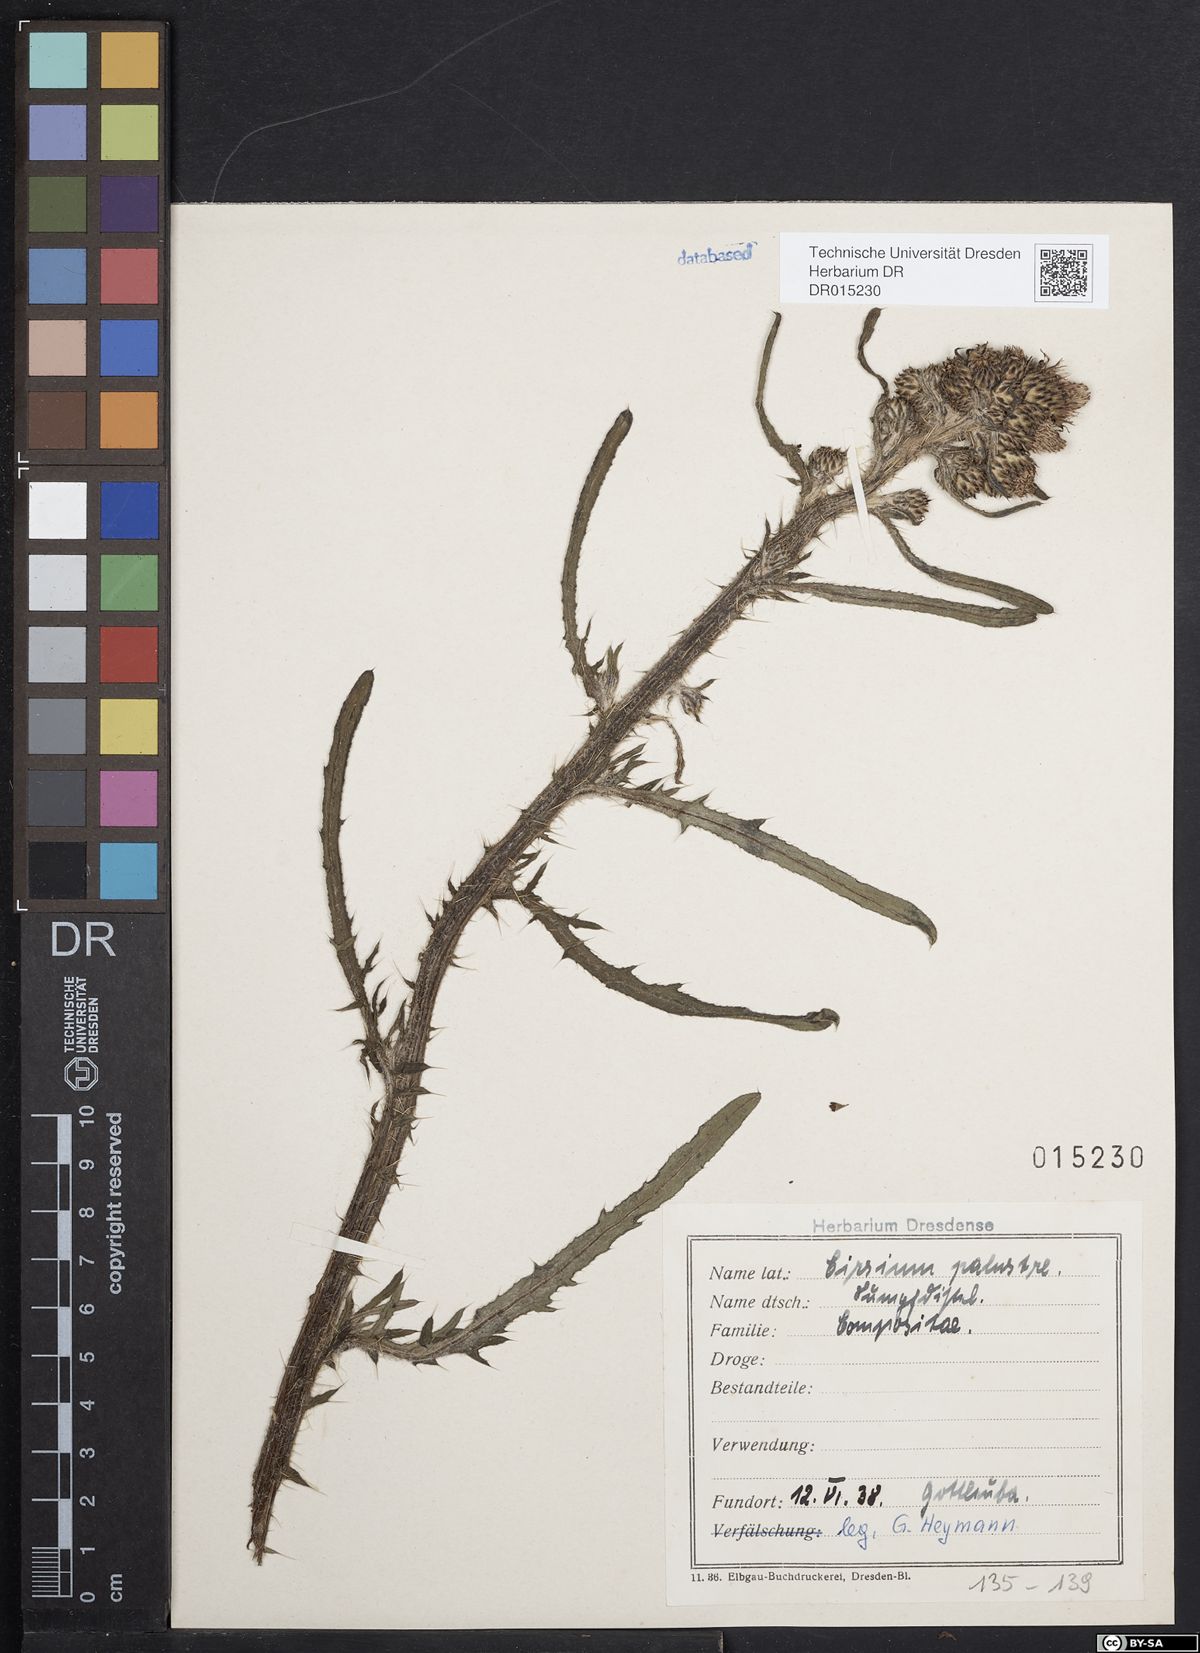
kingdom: Plantae
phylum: Tracheophyta
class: Magnoliopsida
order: Asterales
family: Asteraceae
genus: Cirsium
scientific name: Cirsium palustre
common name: Marsh thistle
